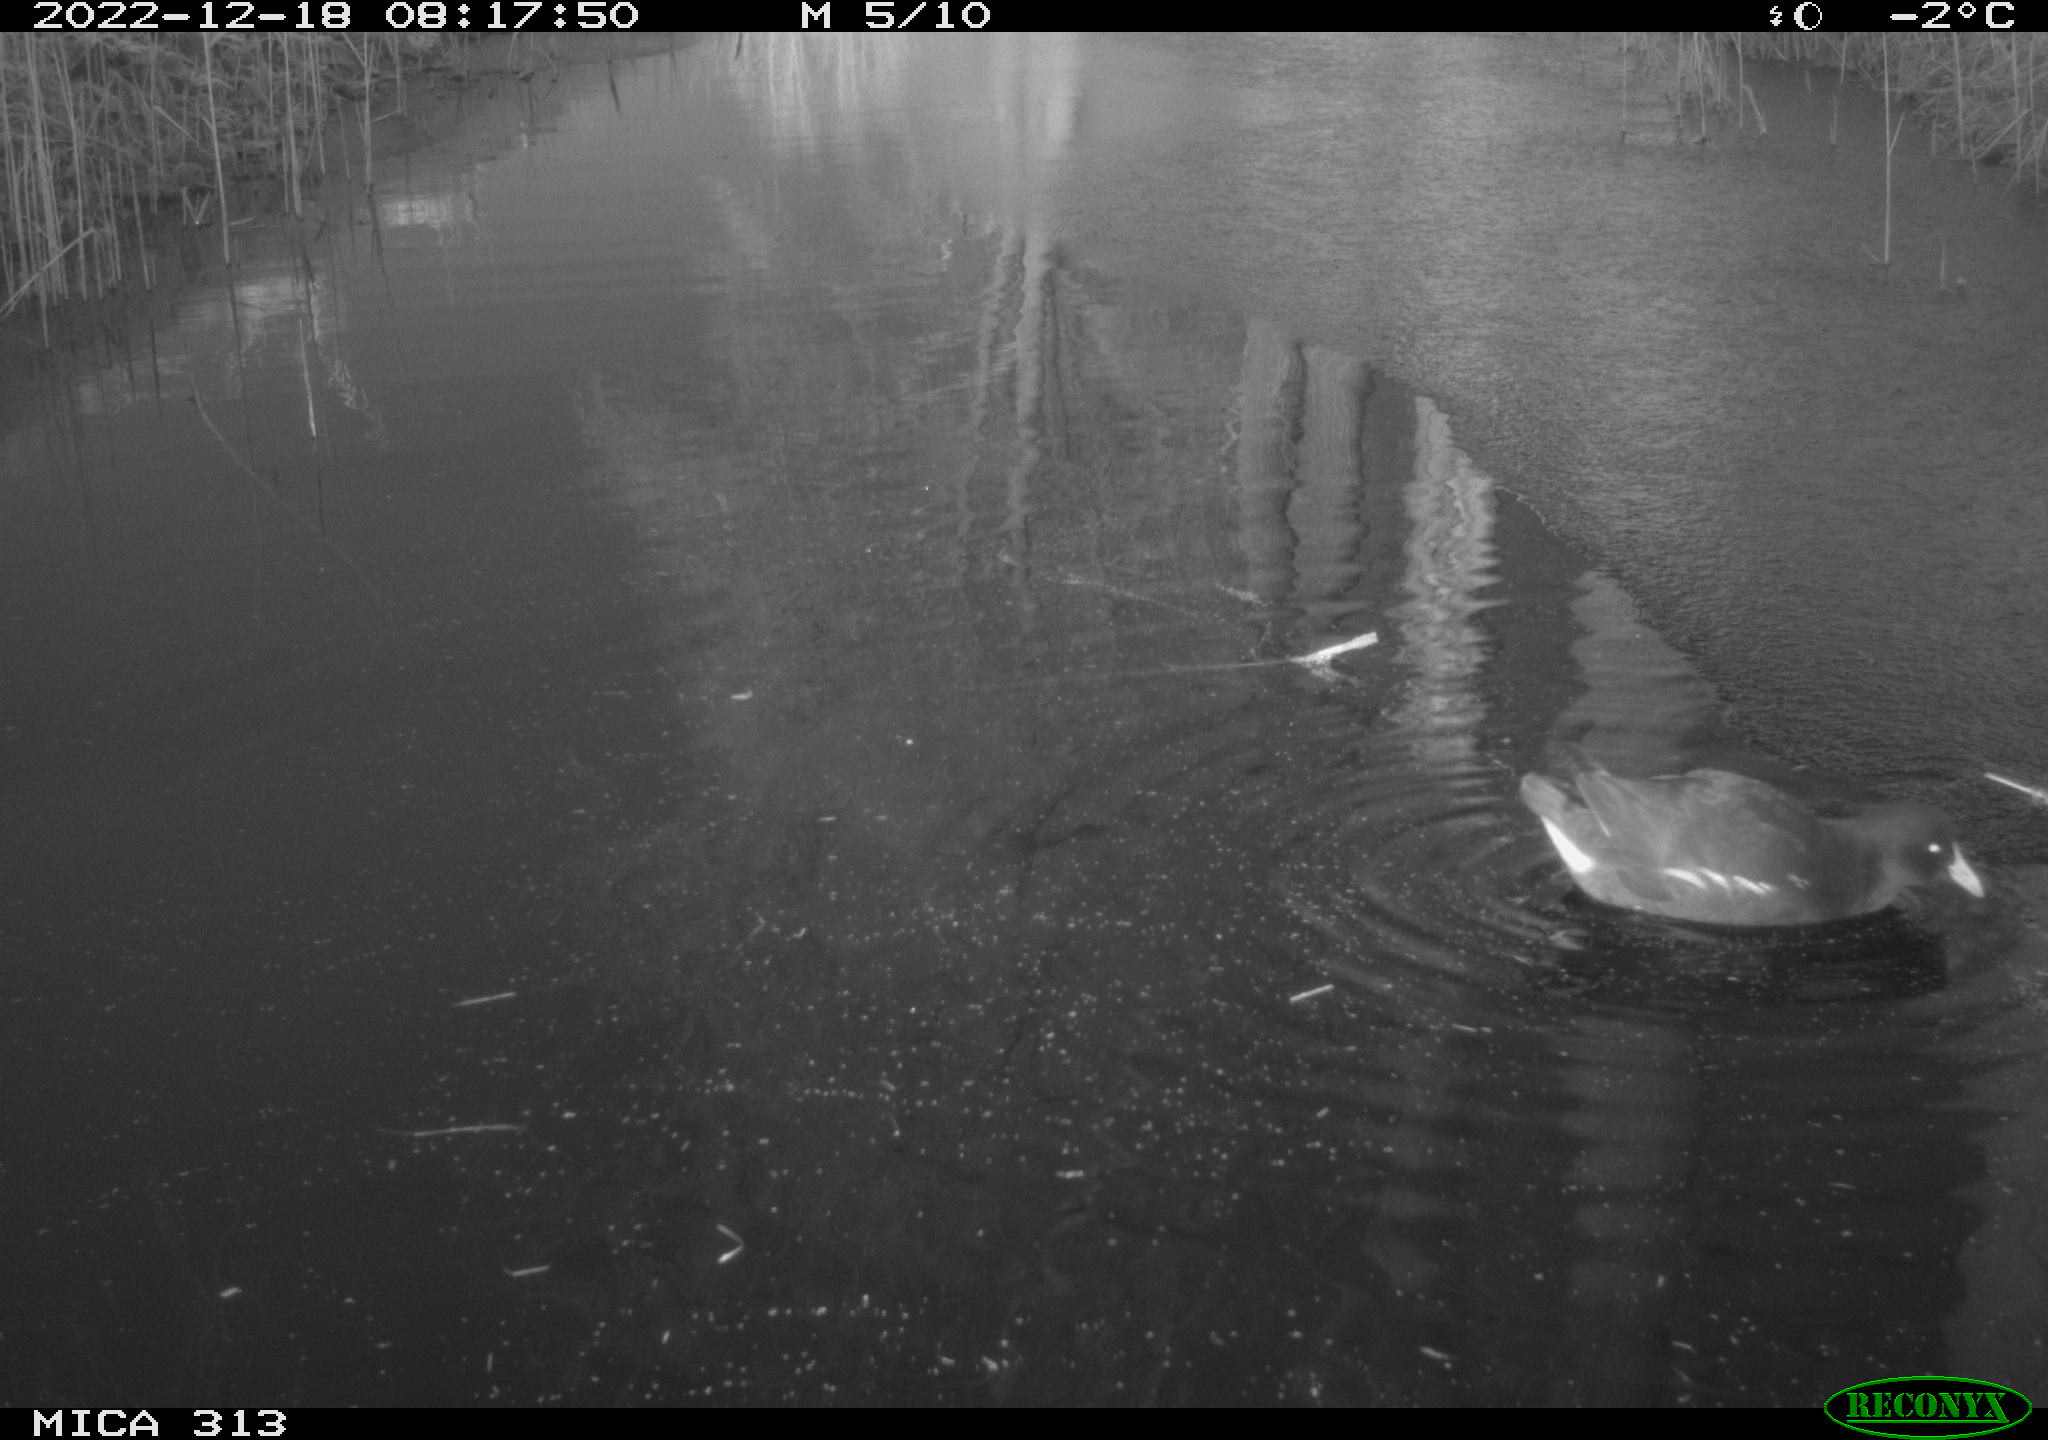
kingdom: Animalia
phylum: Chordata
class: Aves
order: Gruiformes
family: Rallidae
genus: Gallinula
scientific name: Gallinula chloropus
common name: Common moorhen
